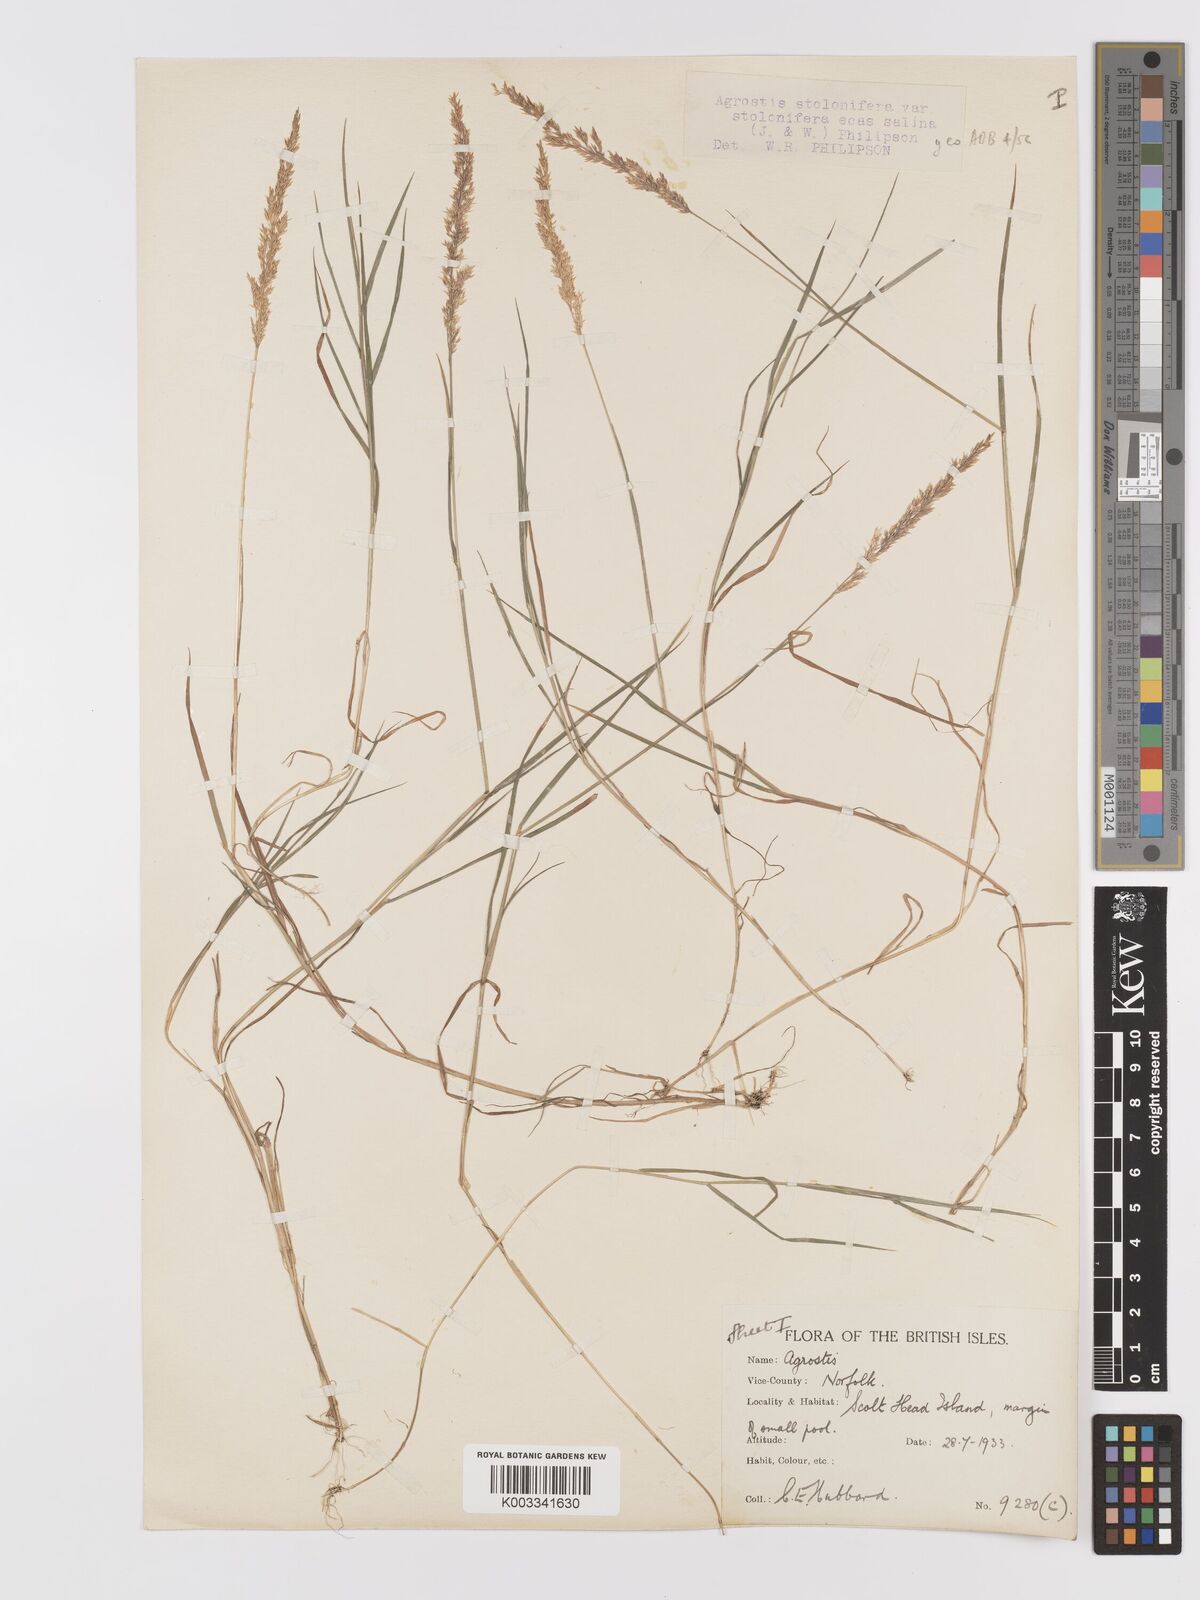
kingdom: Plantae
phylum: Tracheophyta
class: Liliopsida
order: Poales
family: Poaceae
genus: Agrostis
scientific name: Agrostis stolonifera
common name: Creeping bentgrass
